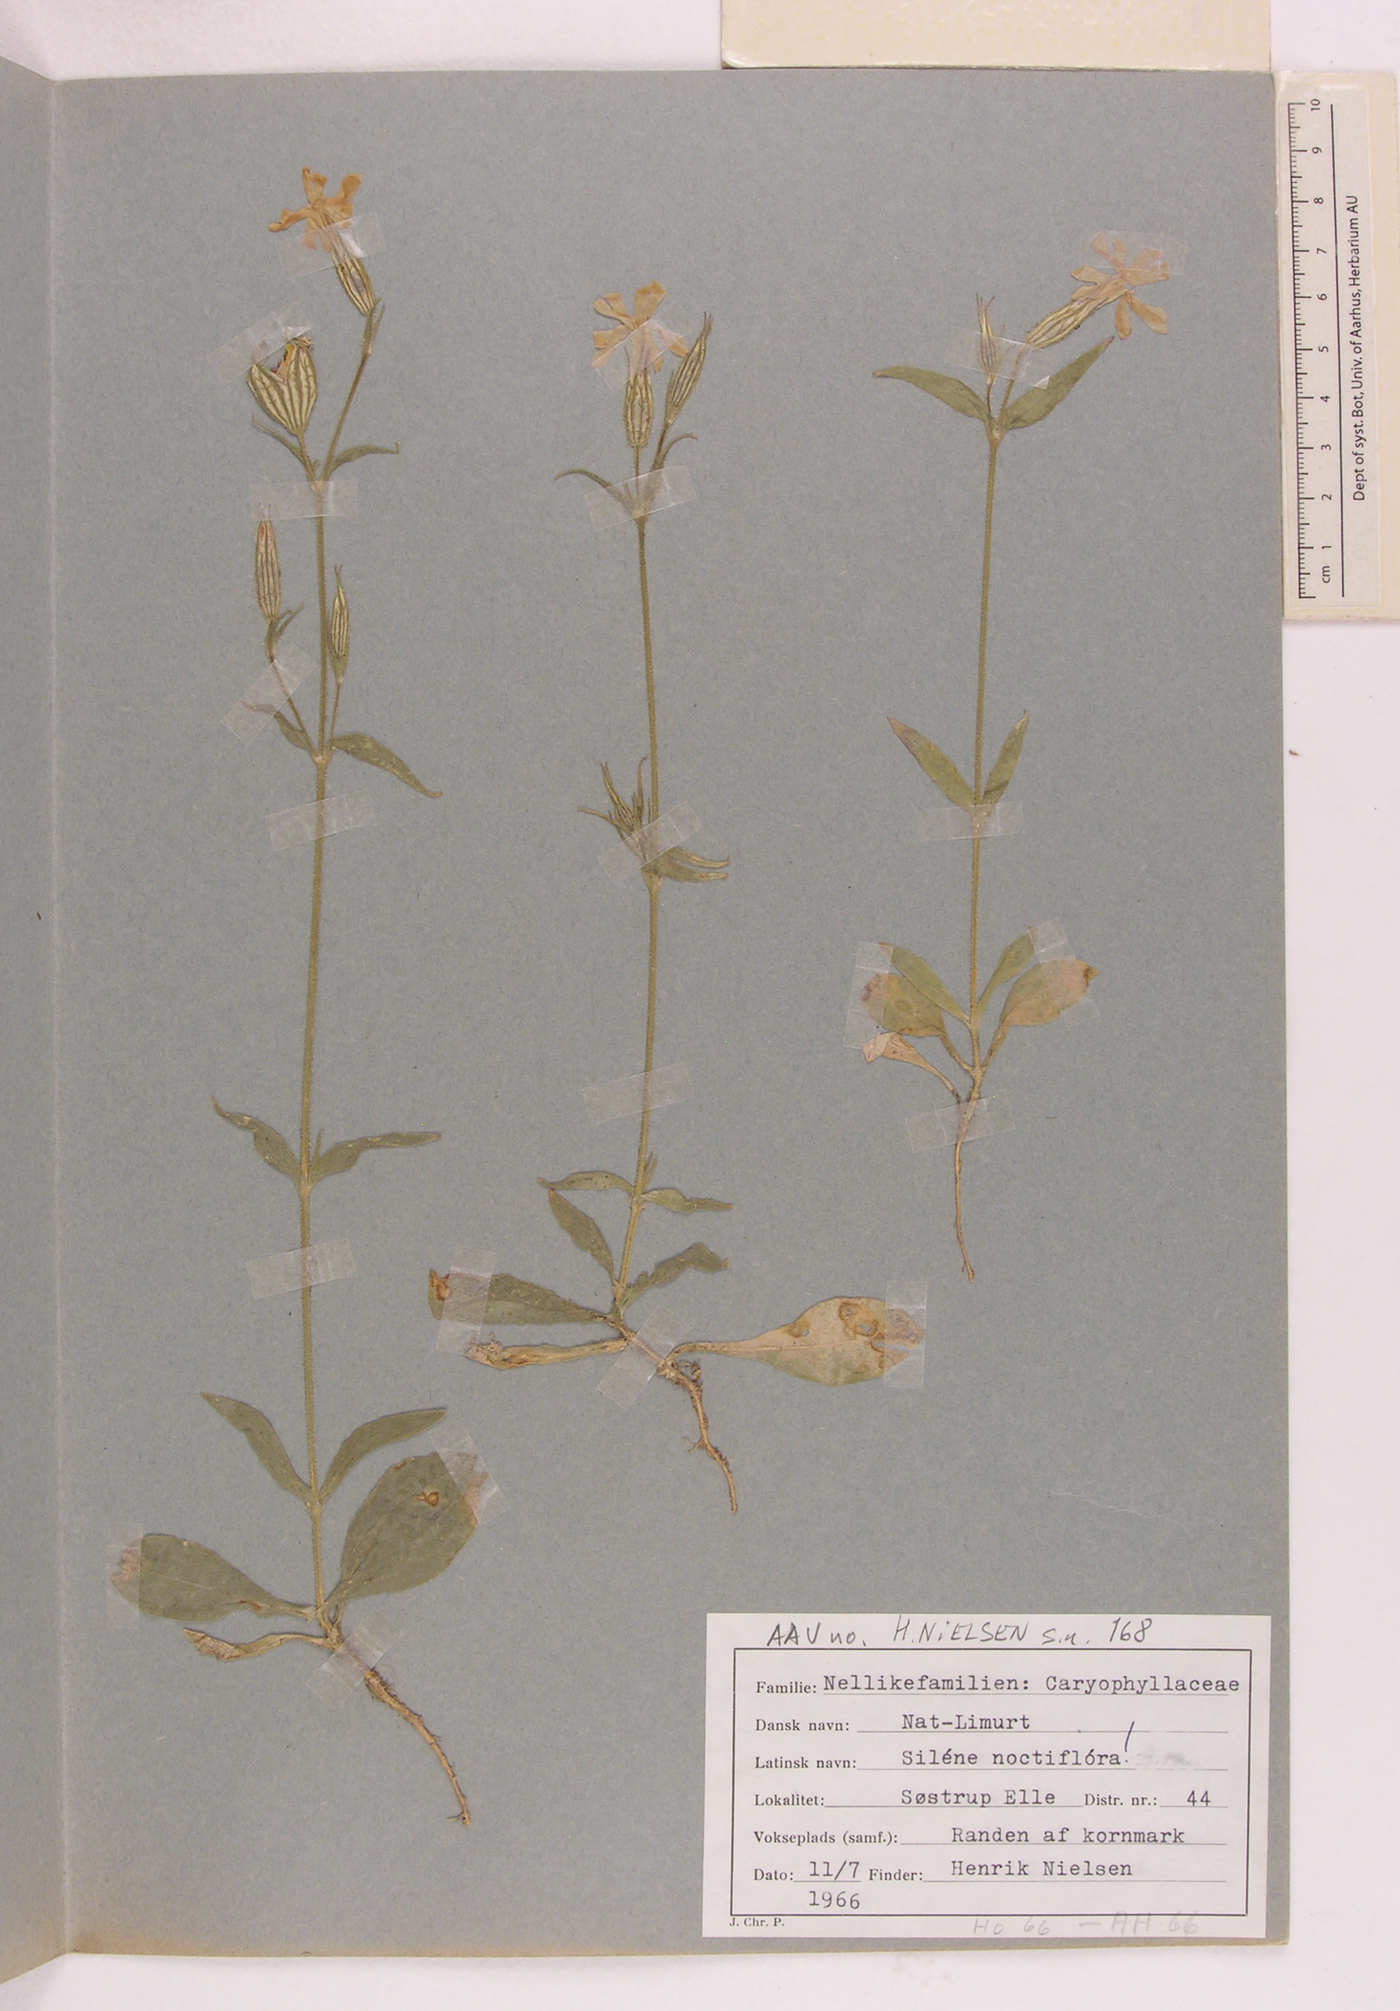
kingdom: Plantae
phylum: Tracheophyta
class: Magnoliopsida
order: Caryophyllales
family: Caryophyllaceae
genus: Silene
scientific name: Silene noctiflora
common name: Night-flowering catchfly
